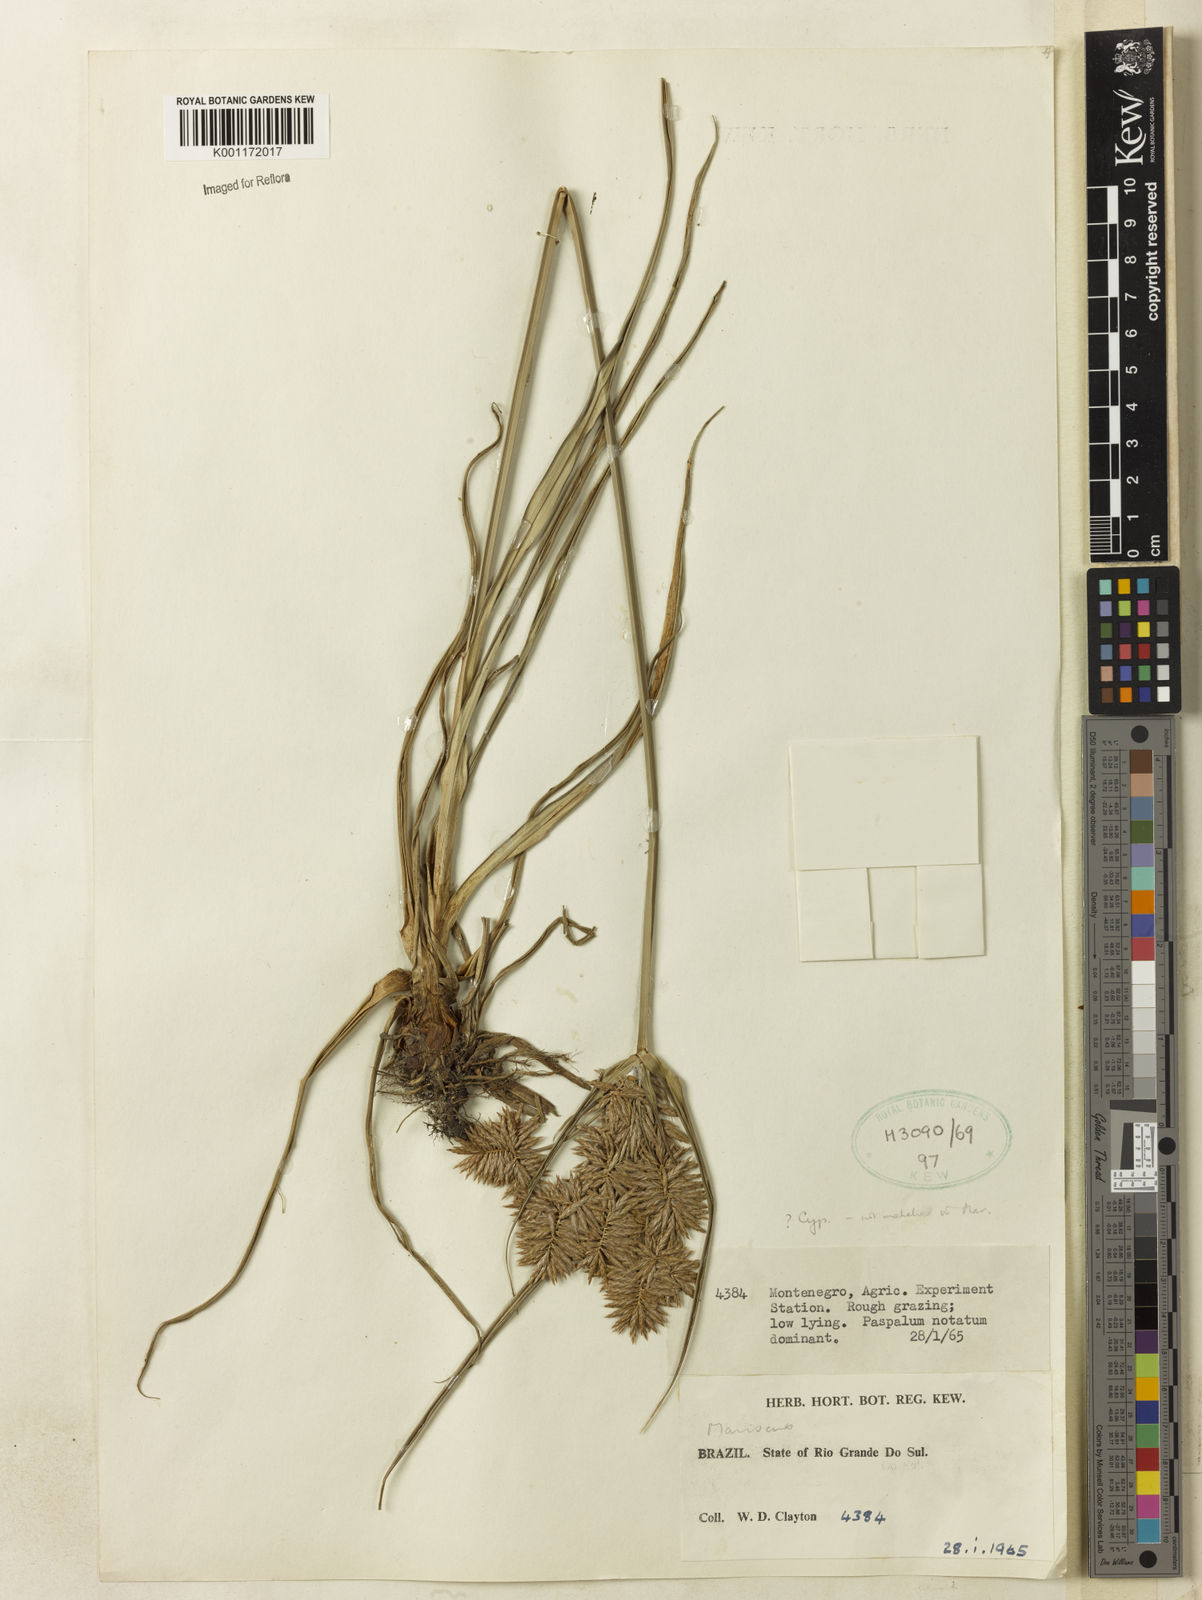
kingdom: Plantae
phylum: Tracheophyta
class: Liliopsida
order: Poales
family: Cyperaceae
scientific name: Cyperaceae
